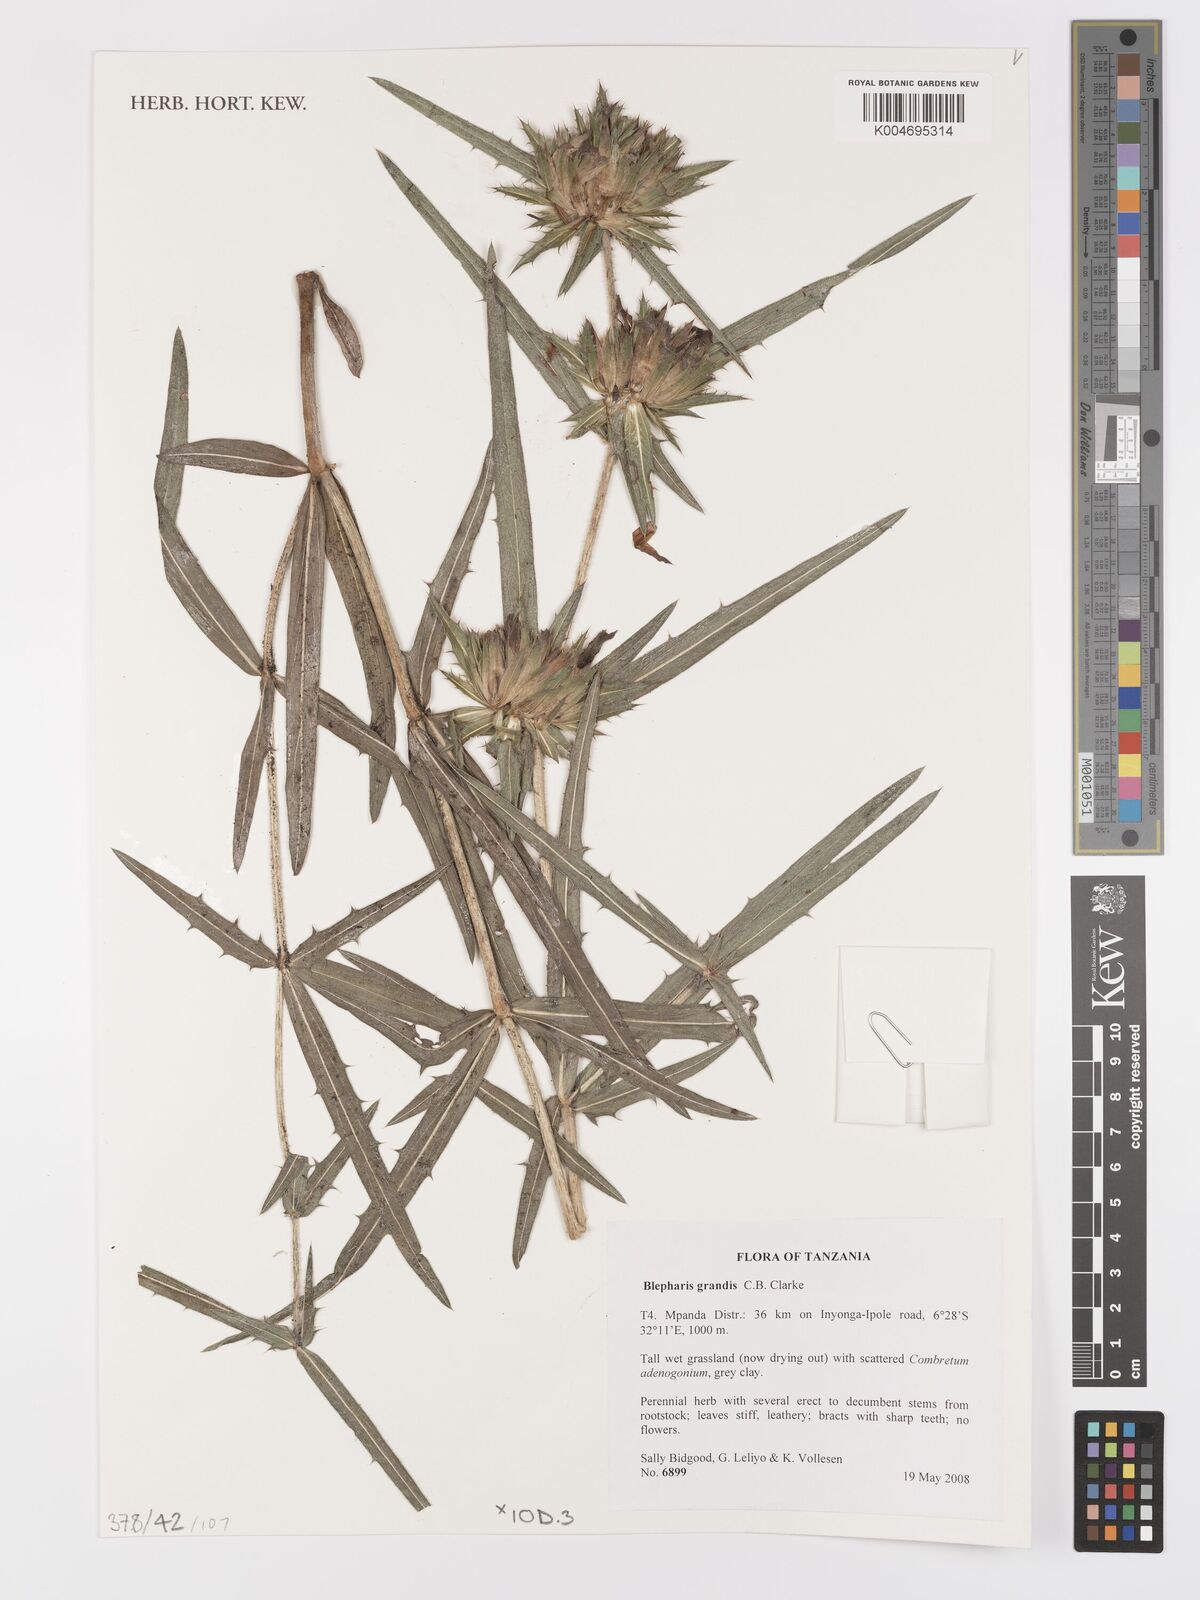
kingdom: Plantae
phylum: Tracheophyta
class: Magnoliopsida
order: Lamiales
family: Acanthaceae
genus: Blepharis
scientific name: Blepharis grandis
